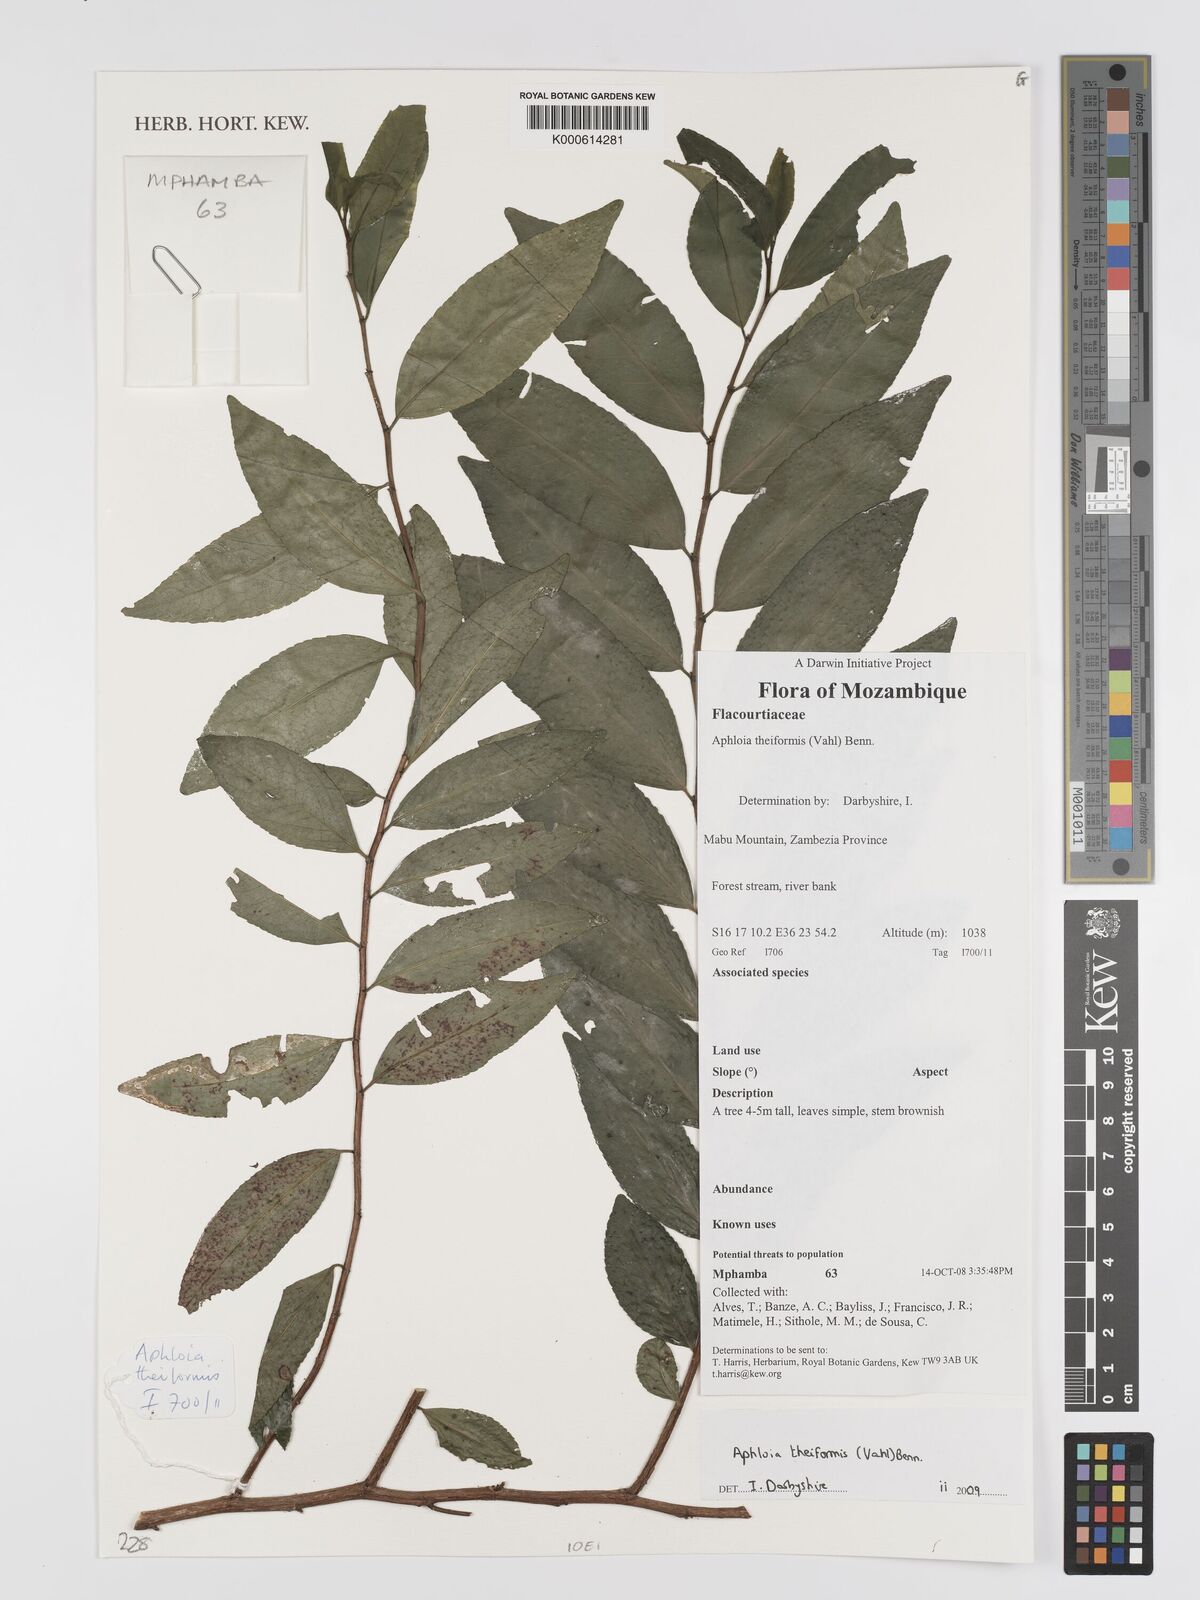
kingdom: Plantae
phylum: Tracheophyta
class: Magnoliopsida
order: Crossosomatales
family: Aphloiaceae
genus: Aphloia
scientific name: Aphloia theiformis
